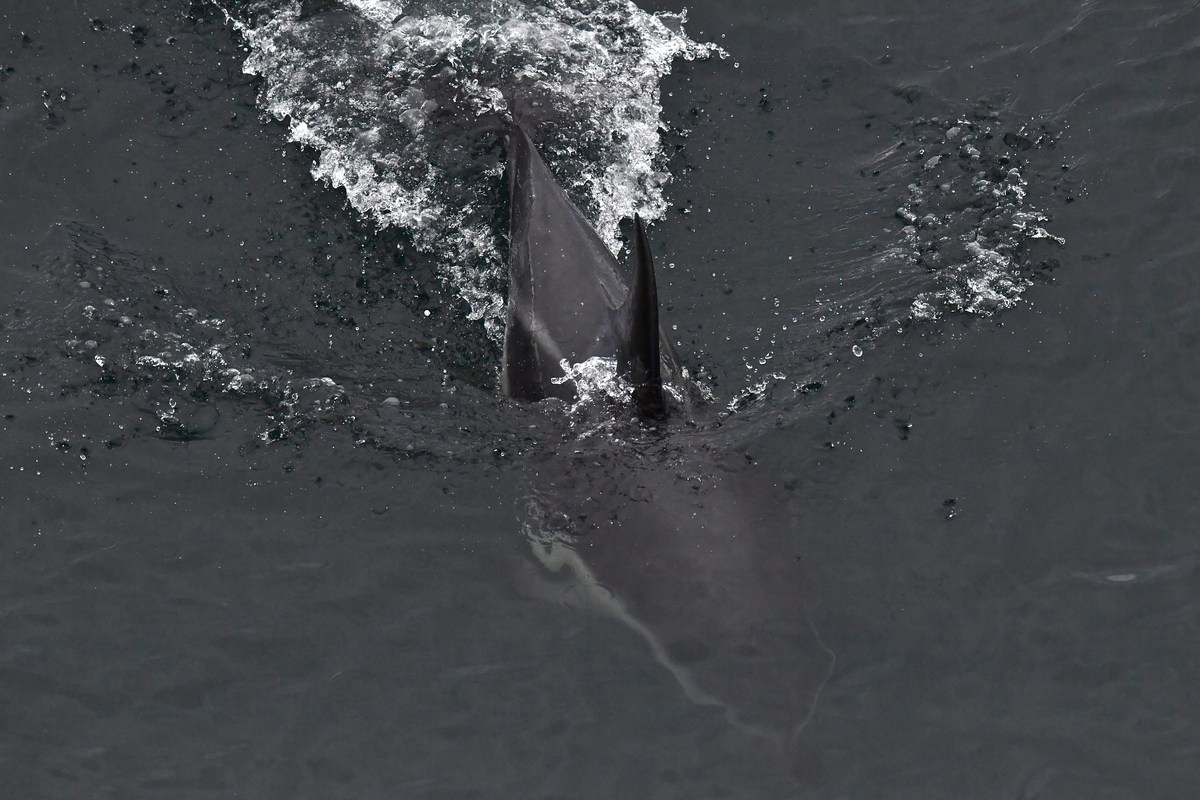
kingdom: Animalia
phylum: Chordata
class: Mammalia
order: Cetacea
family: Delphinidae
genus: Lagenorhynchus
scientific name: Lagenorhynchus obscurus
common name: Dusky dolphin
